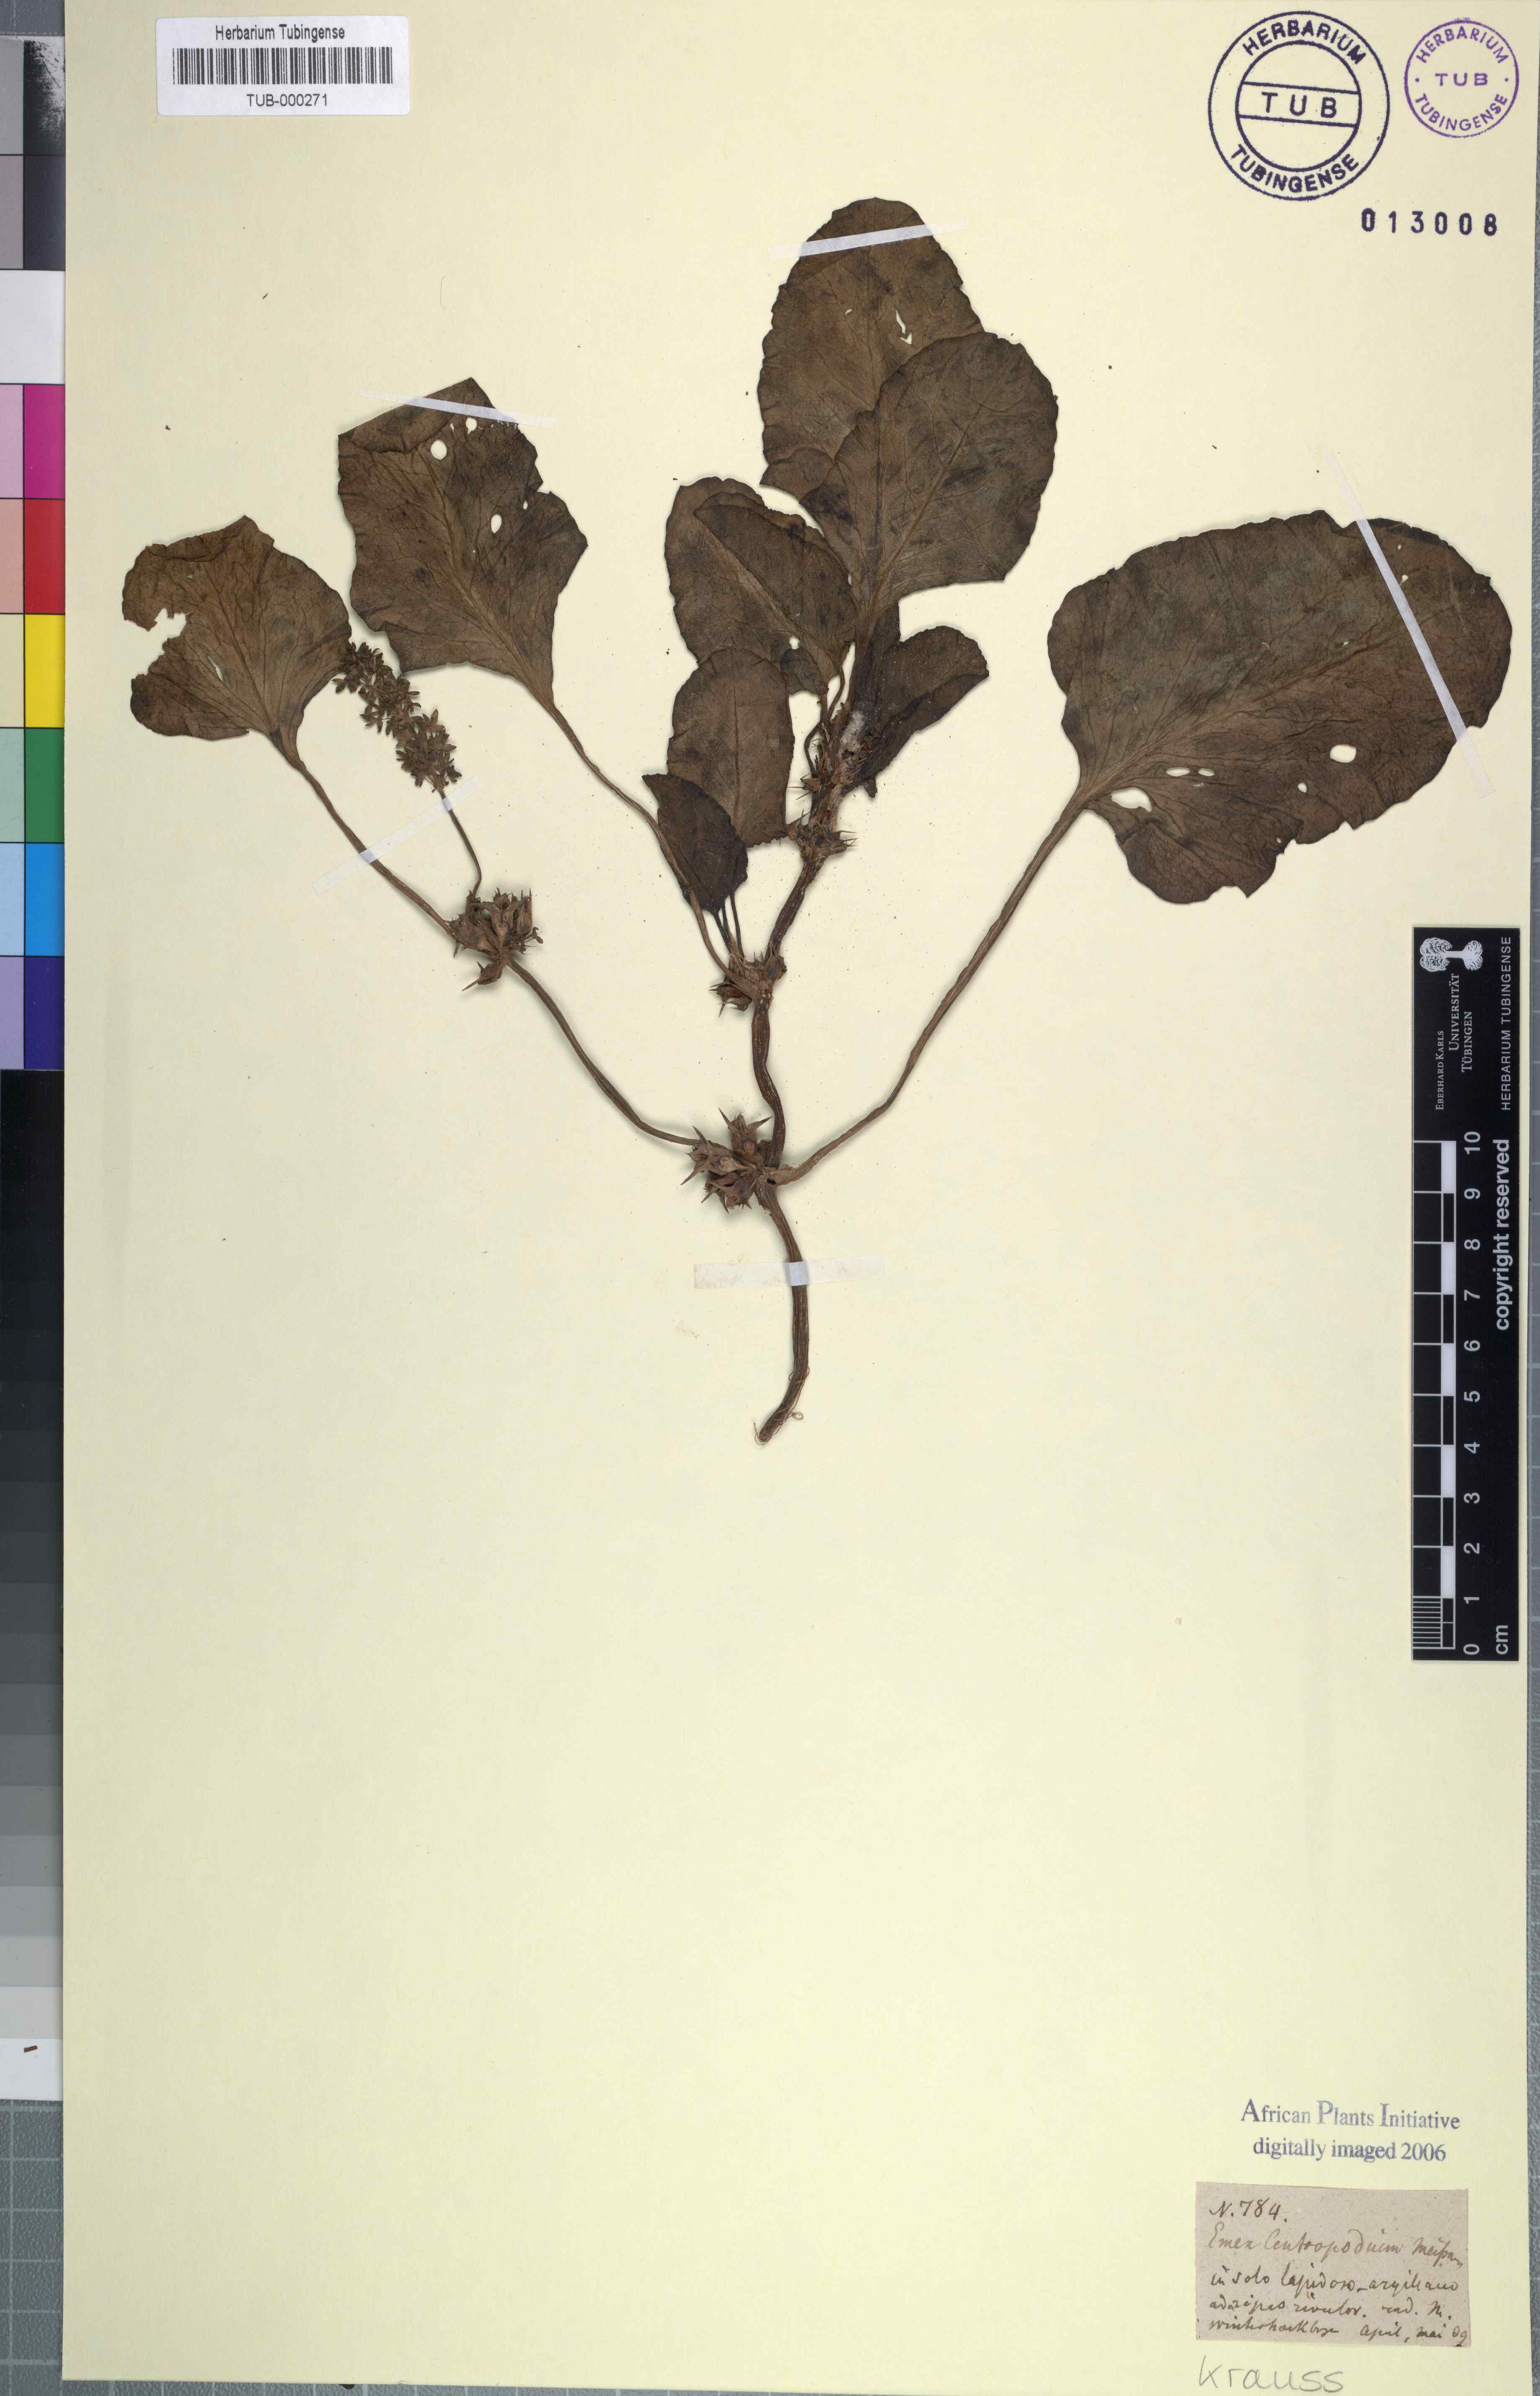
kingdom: Plantae
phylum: Tracheophyta
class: Magnoliopsida
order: Caryophyllales
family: Polygonaceae
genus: Rumex
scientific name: Rumex hypogaeus
